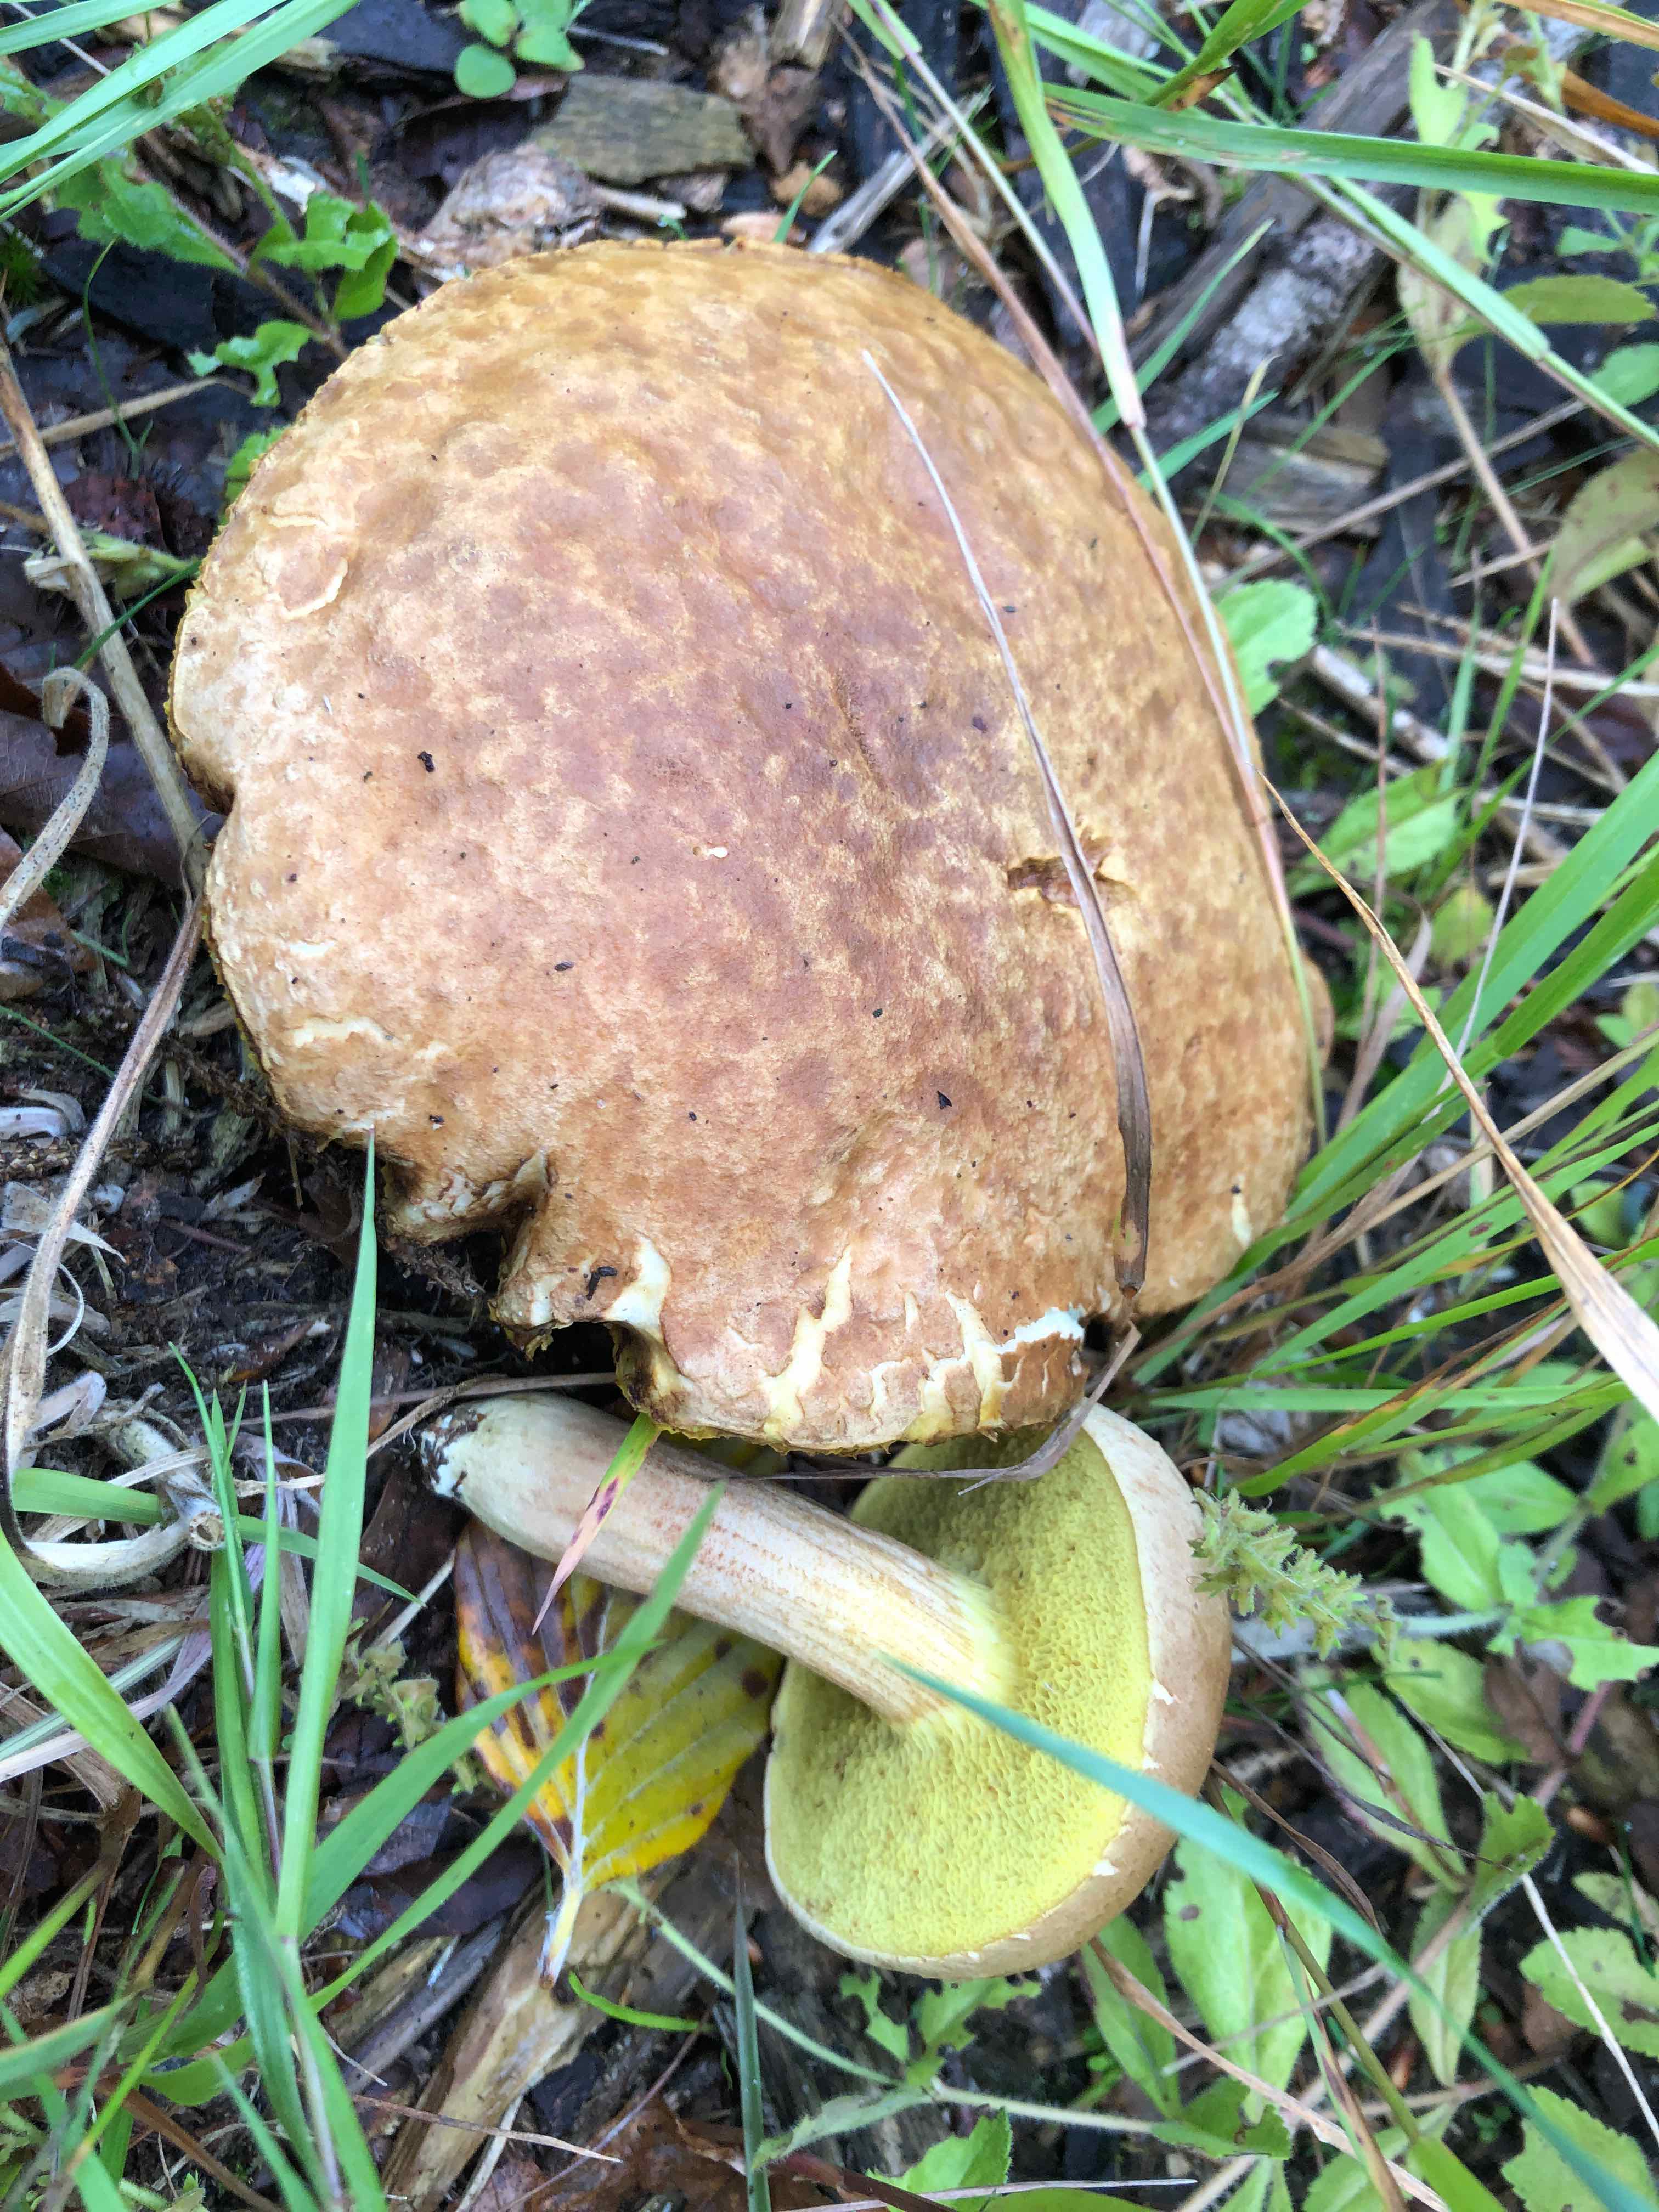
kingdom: Fungi
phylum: Basidiomycota
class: Agaricomycetes
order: Boletales
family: Boletaceae
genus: Xerocomus
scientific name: Xerocomus subtomentosus
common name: filtet rørhat
